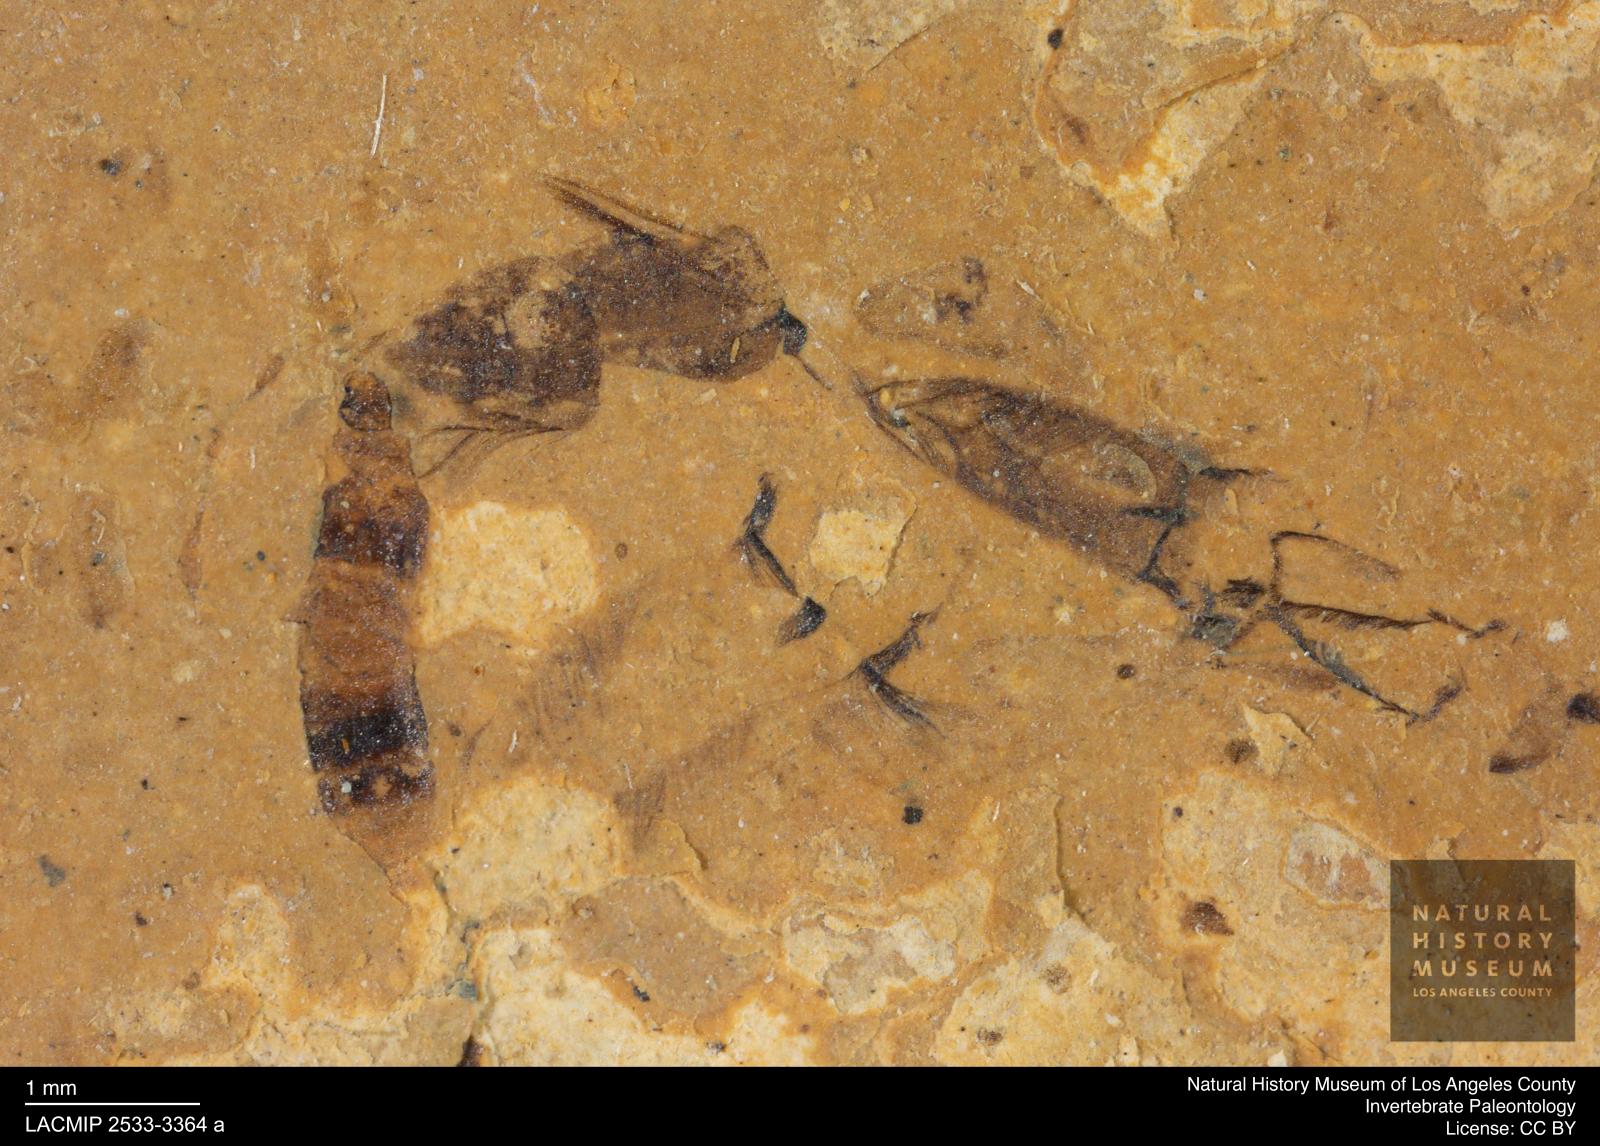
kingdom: Animalia
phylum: Arthropoda
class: Insecta
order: Coleoptera
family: Staphylinidae
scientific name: Staphylinidae
